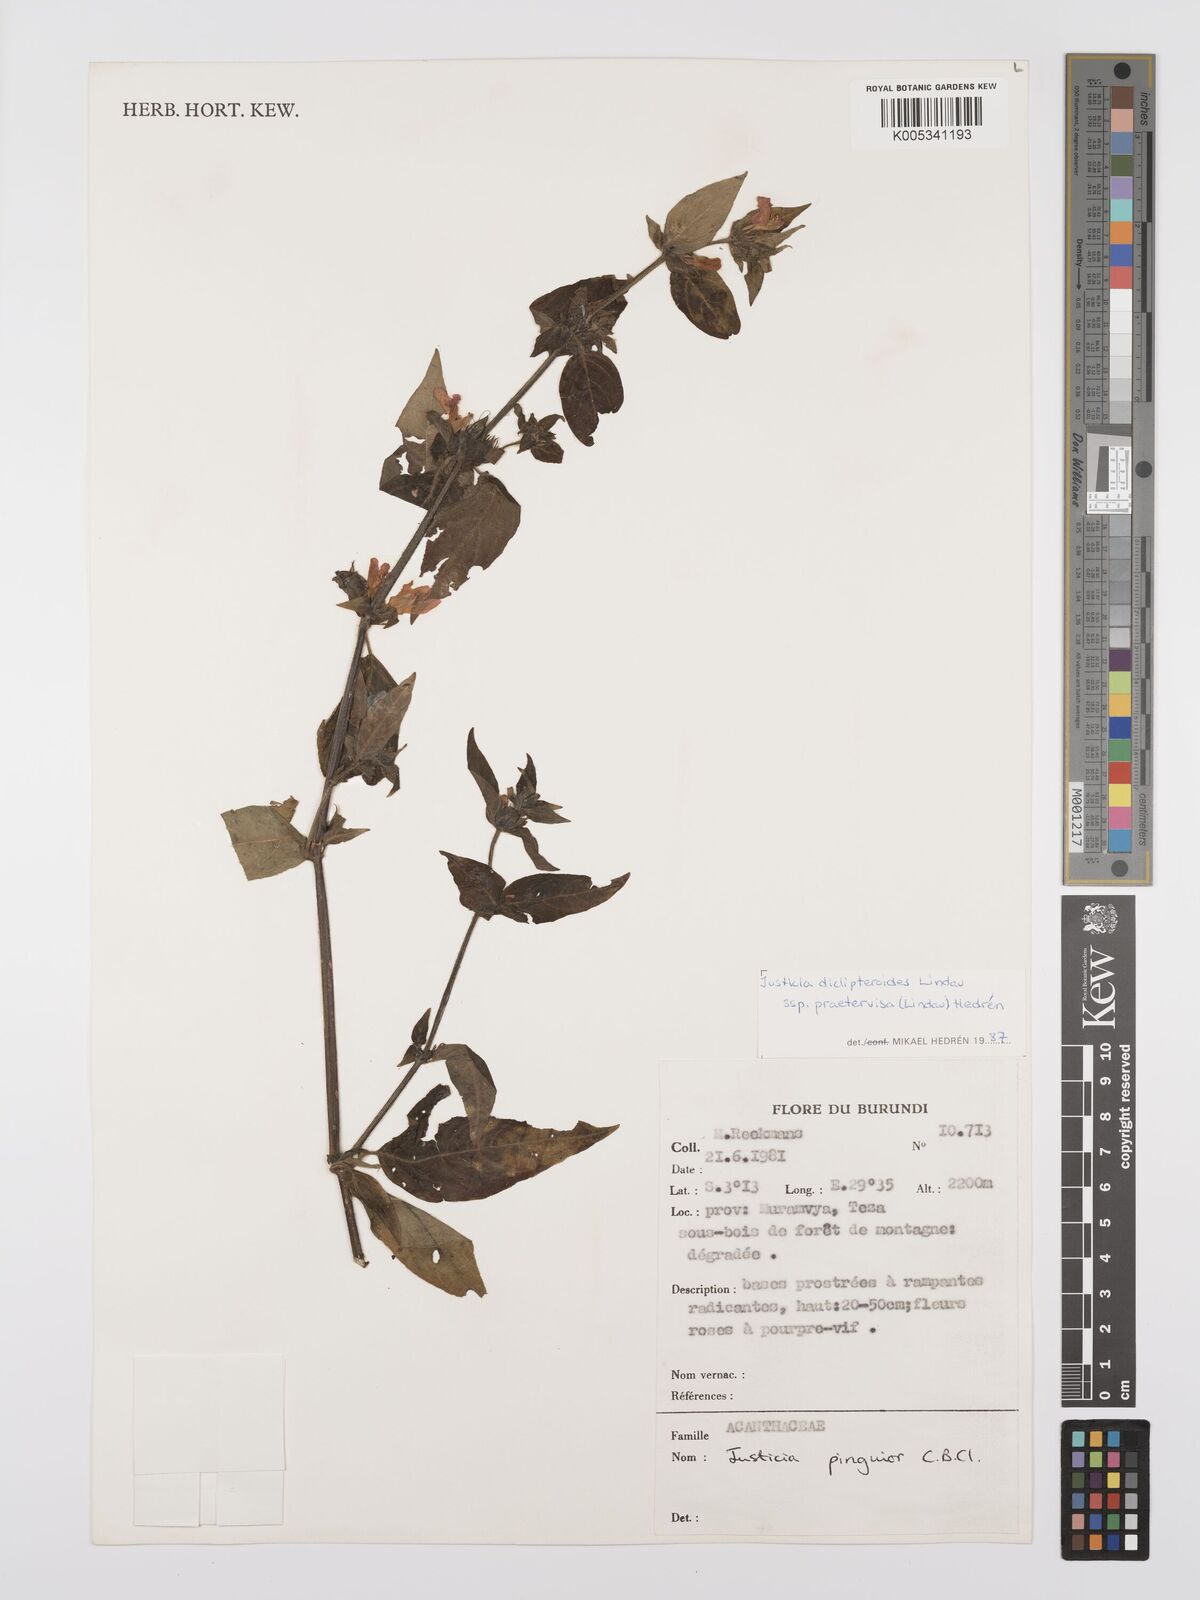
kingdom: Plantae
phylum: Tracheophyta
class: Magnoliopsida
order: Lamiales
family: Acanthaceae
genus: Justicia
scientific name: Justicia diclipteroides
